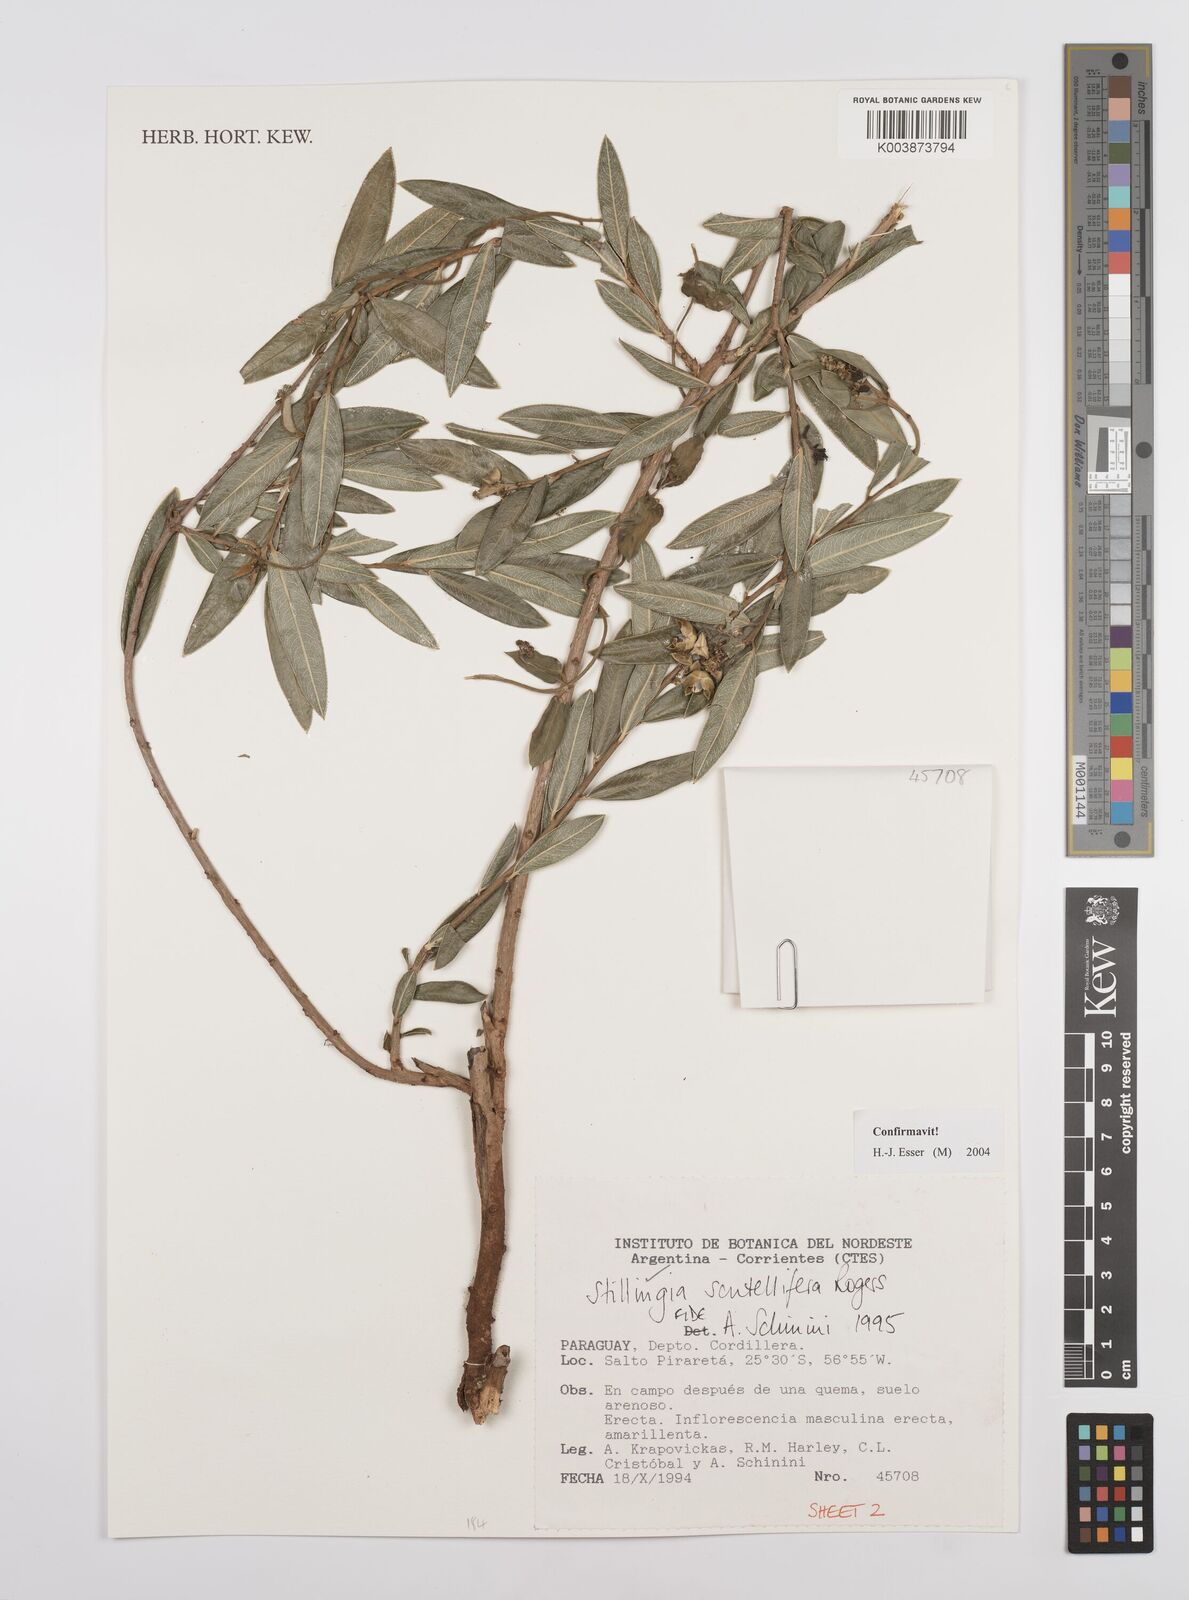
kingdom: Plantae
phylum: Tracheophyta
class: Magnoliopsida
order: Malpighiales
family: Euphorbiaceae
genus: Stillingia
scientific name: Stillingia salpingadenia
